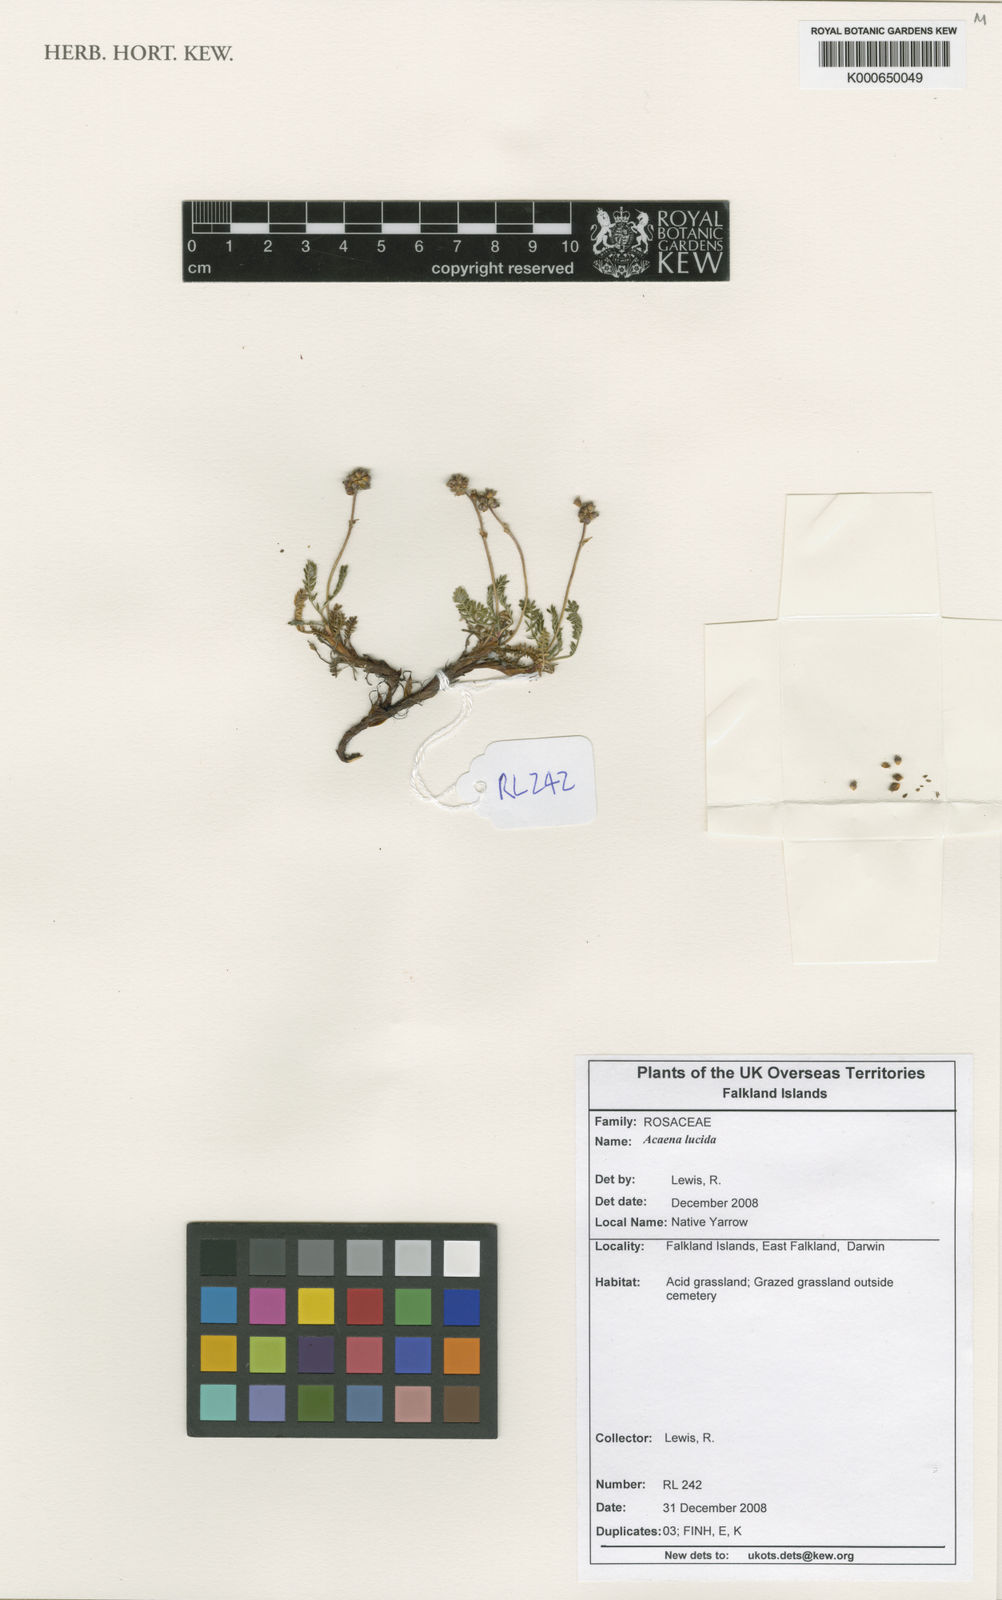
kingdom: Plantae
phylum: Tracheophyta
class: Magnoliopsida
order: Rosales
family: Rosaceae
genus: Acaena
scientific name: Acaena lucida
